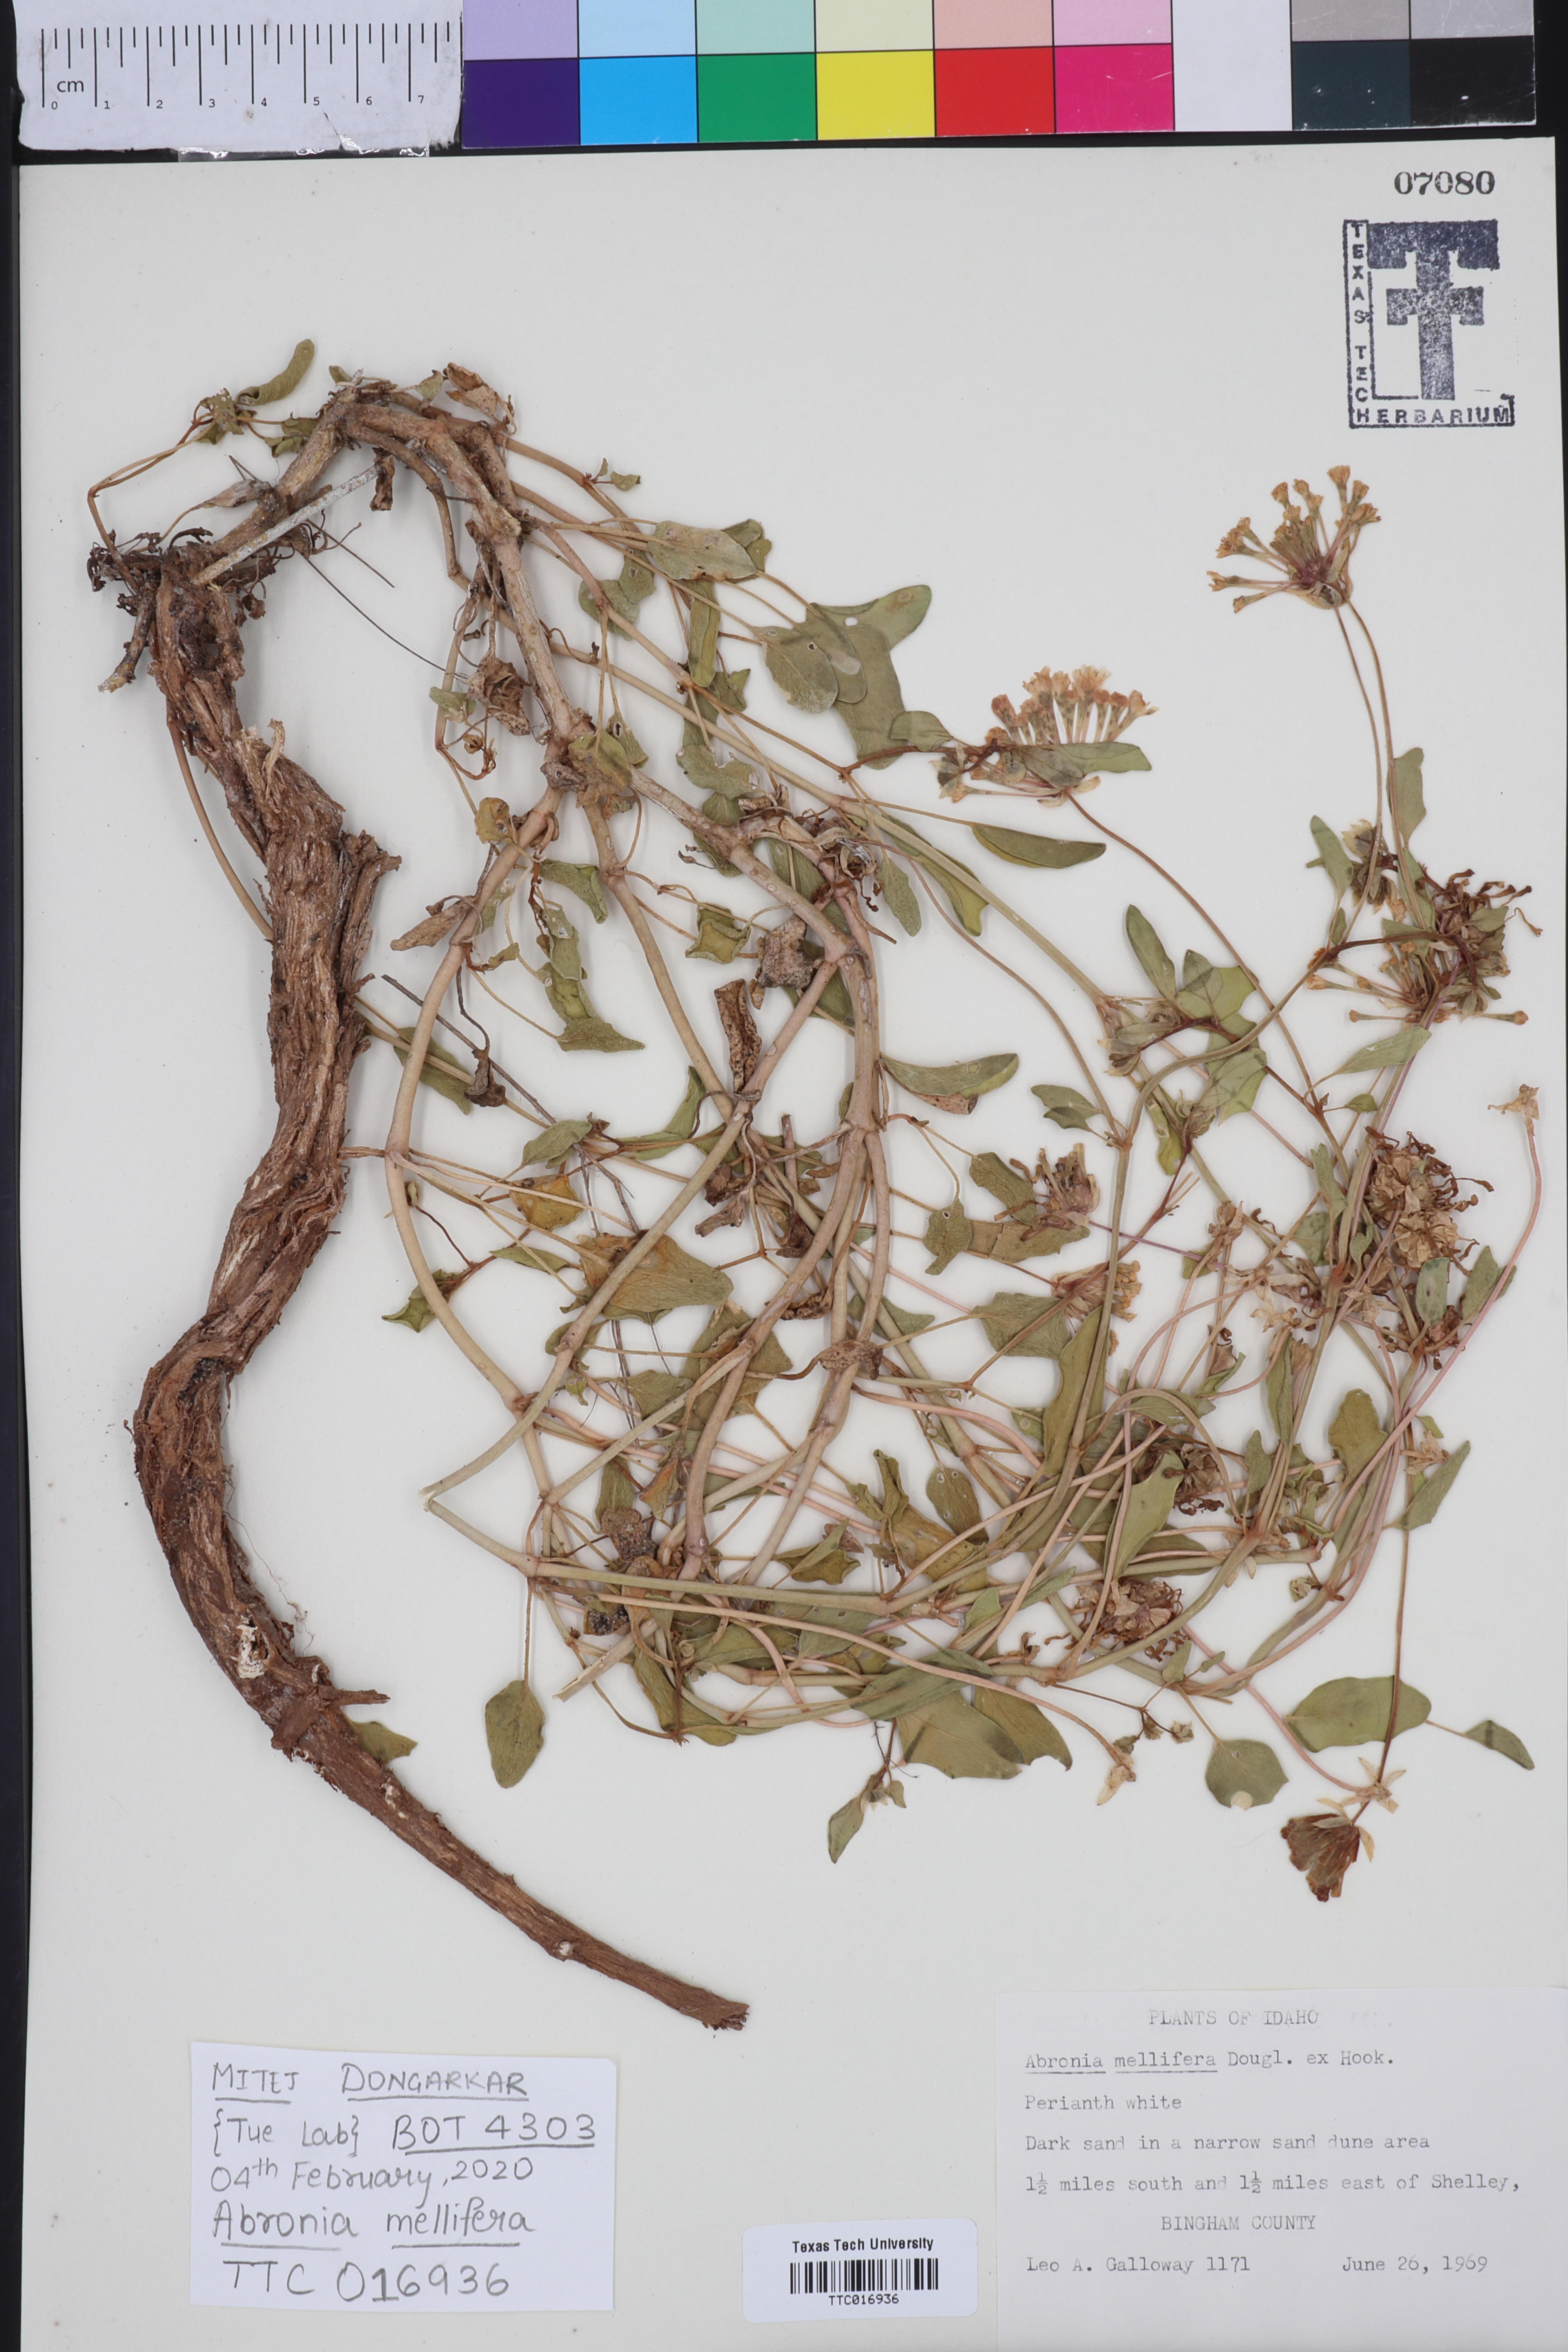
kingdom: Plantae
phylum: Tracheophyta
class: Magnoliopsida
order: Caryophyllales
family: Nyctaginaceae
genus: Abronia
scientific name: Abronia mellifera
